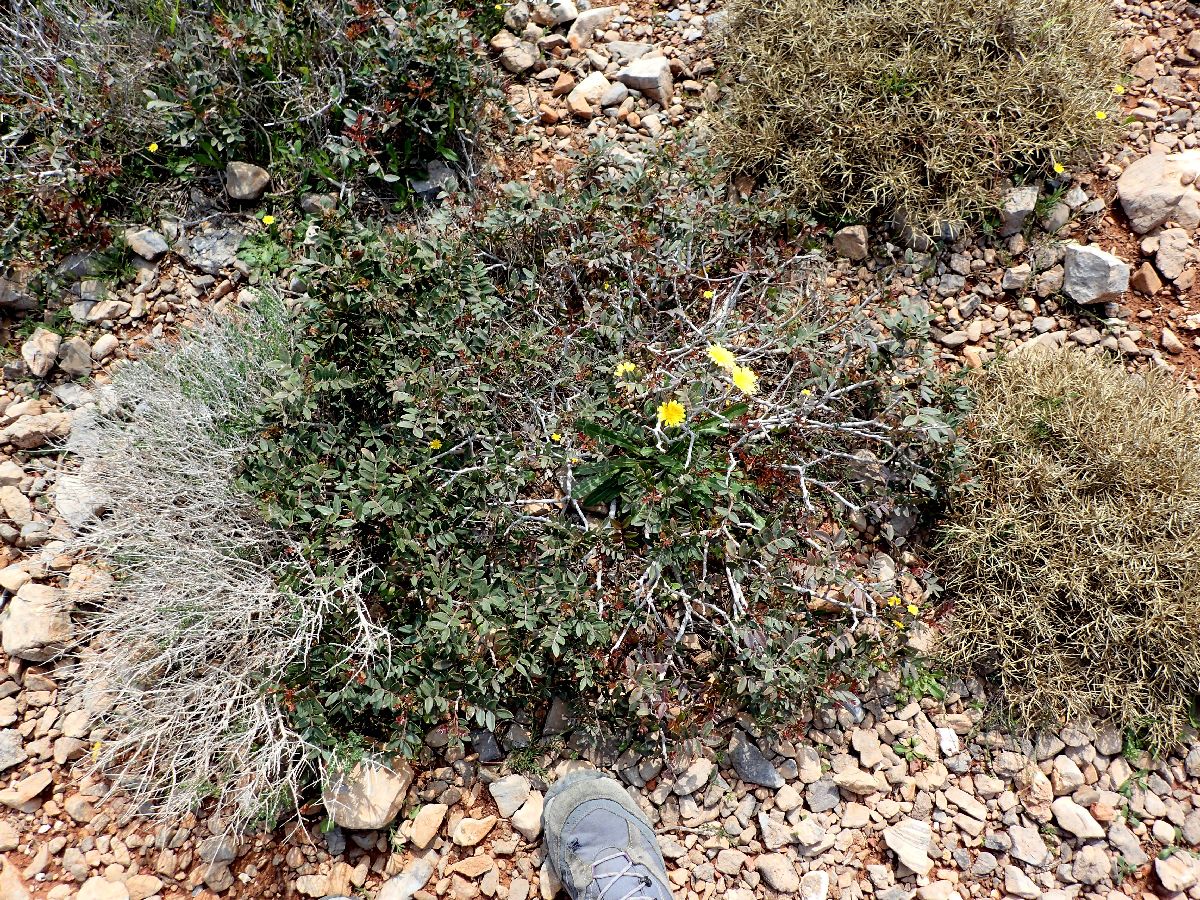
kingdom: Plantae
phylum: Tracheophyta
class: Magnoliopsida
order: Sapindales
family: Anacardiaceae
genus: Pistacia
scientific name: Pistacia lentiscus
